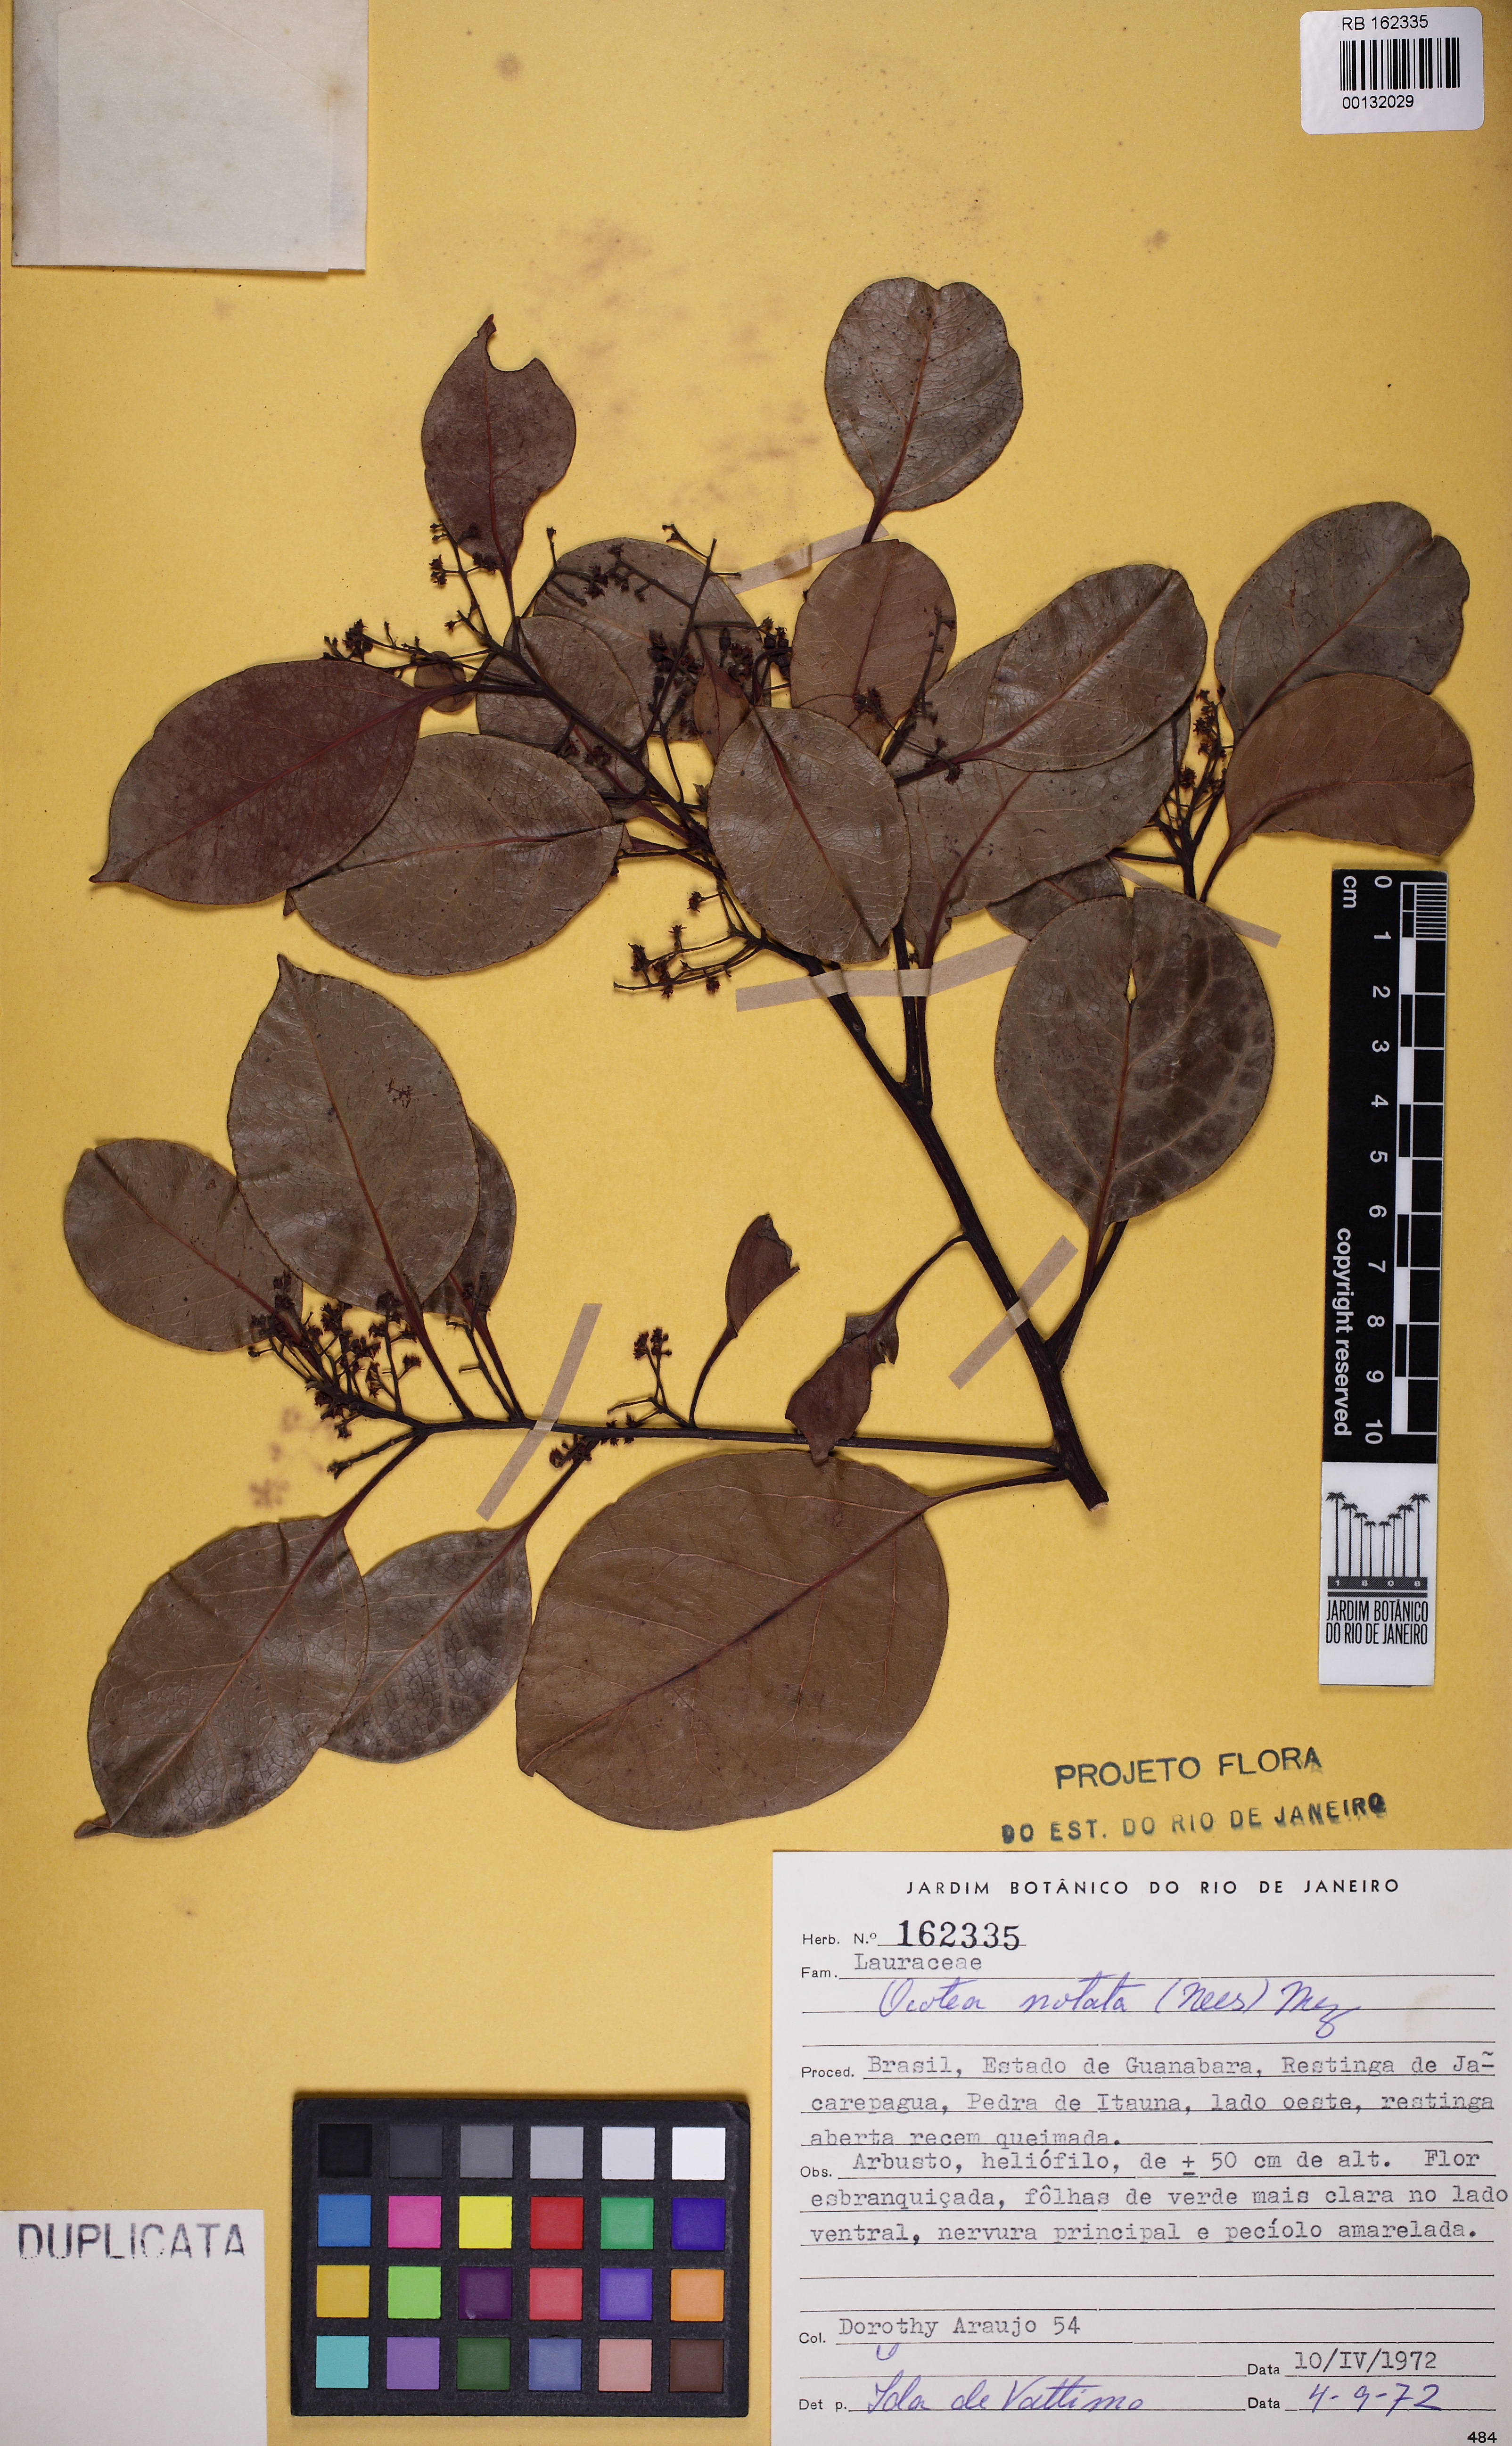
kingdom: Plantae
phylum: Tracheophyta
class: Magnoliopsida
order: Laurales
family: Lauraceae
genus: Mespilodaphne
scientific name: Mespilodaphne notata
